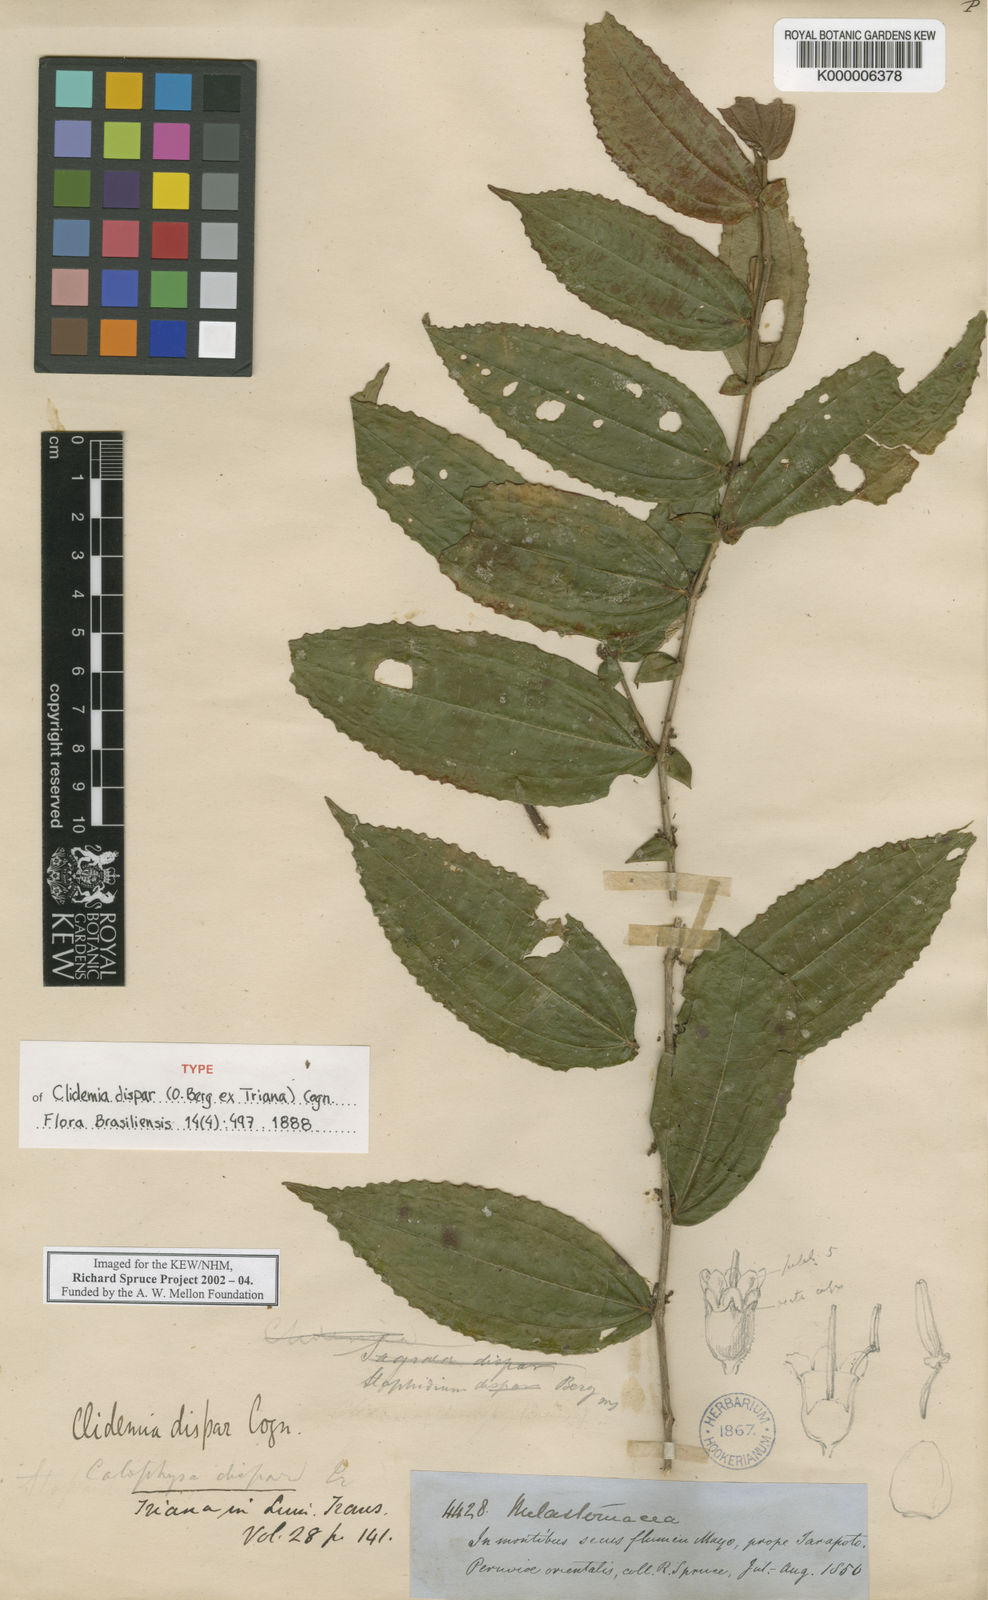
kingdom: Plantae
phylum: Tracheophyta
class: Magnoliopsida
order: Myrtales
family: Melastomataceae
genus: Miconia
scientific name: Miconia dimorphica
